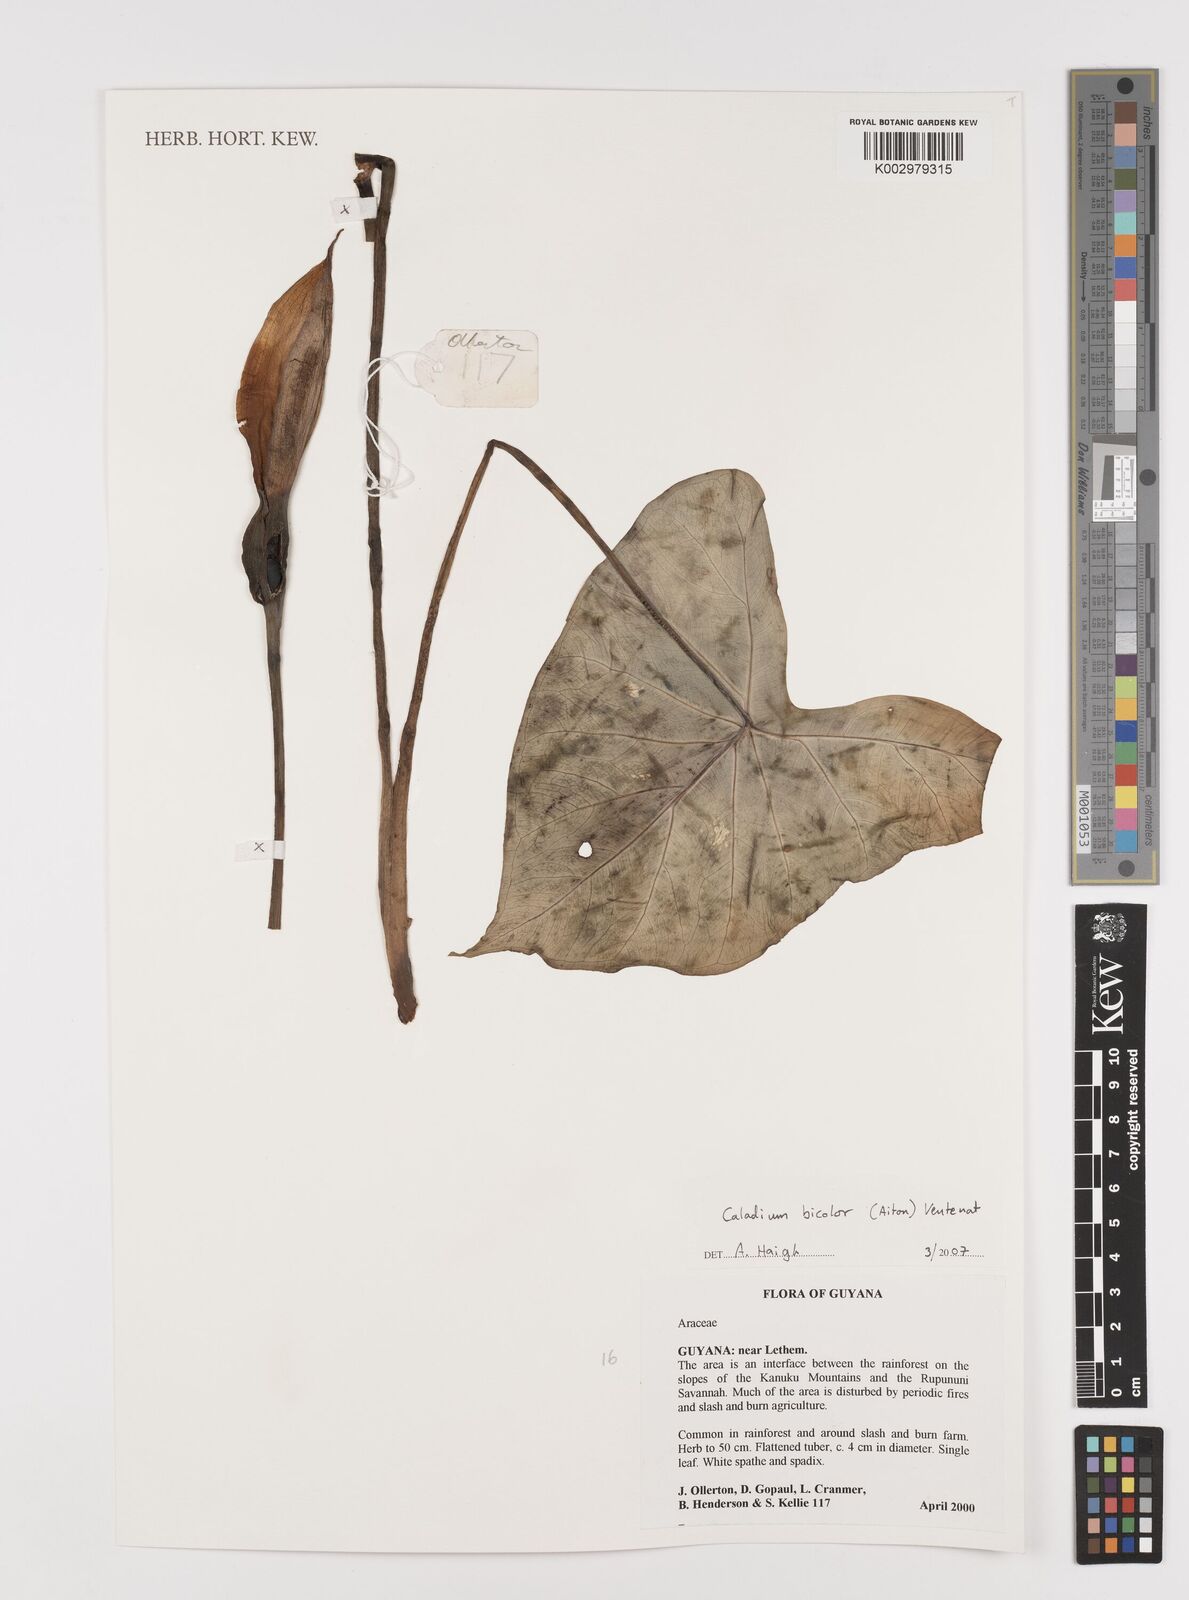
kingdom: Plantae
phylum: Tracheophyta
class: Liliopsida
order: Alismatales
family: Araceae
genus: Caladium
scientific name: Caladium bicolor
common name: Artist's pallet
